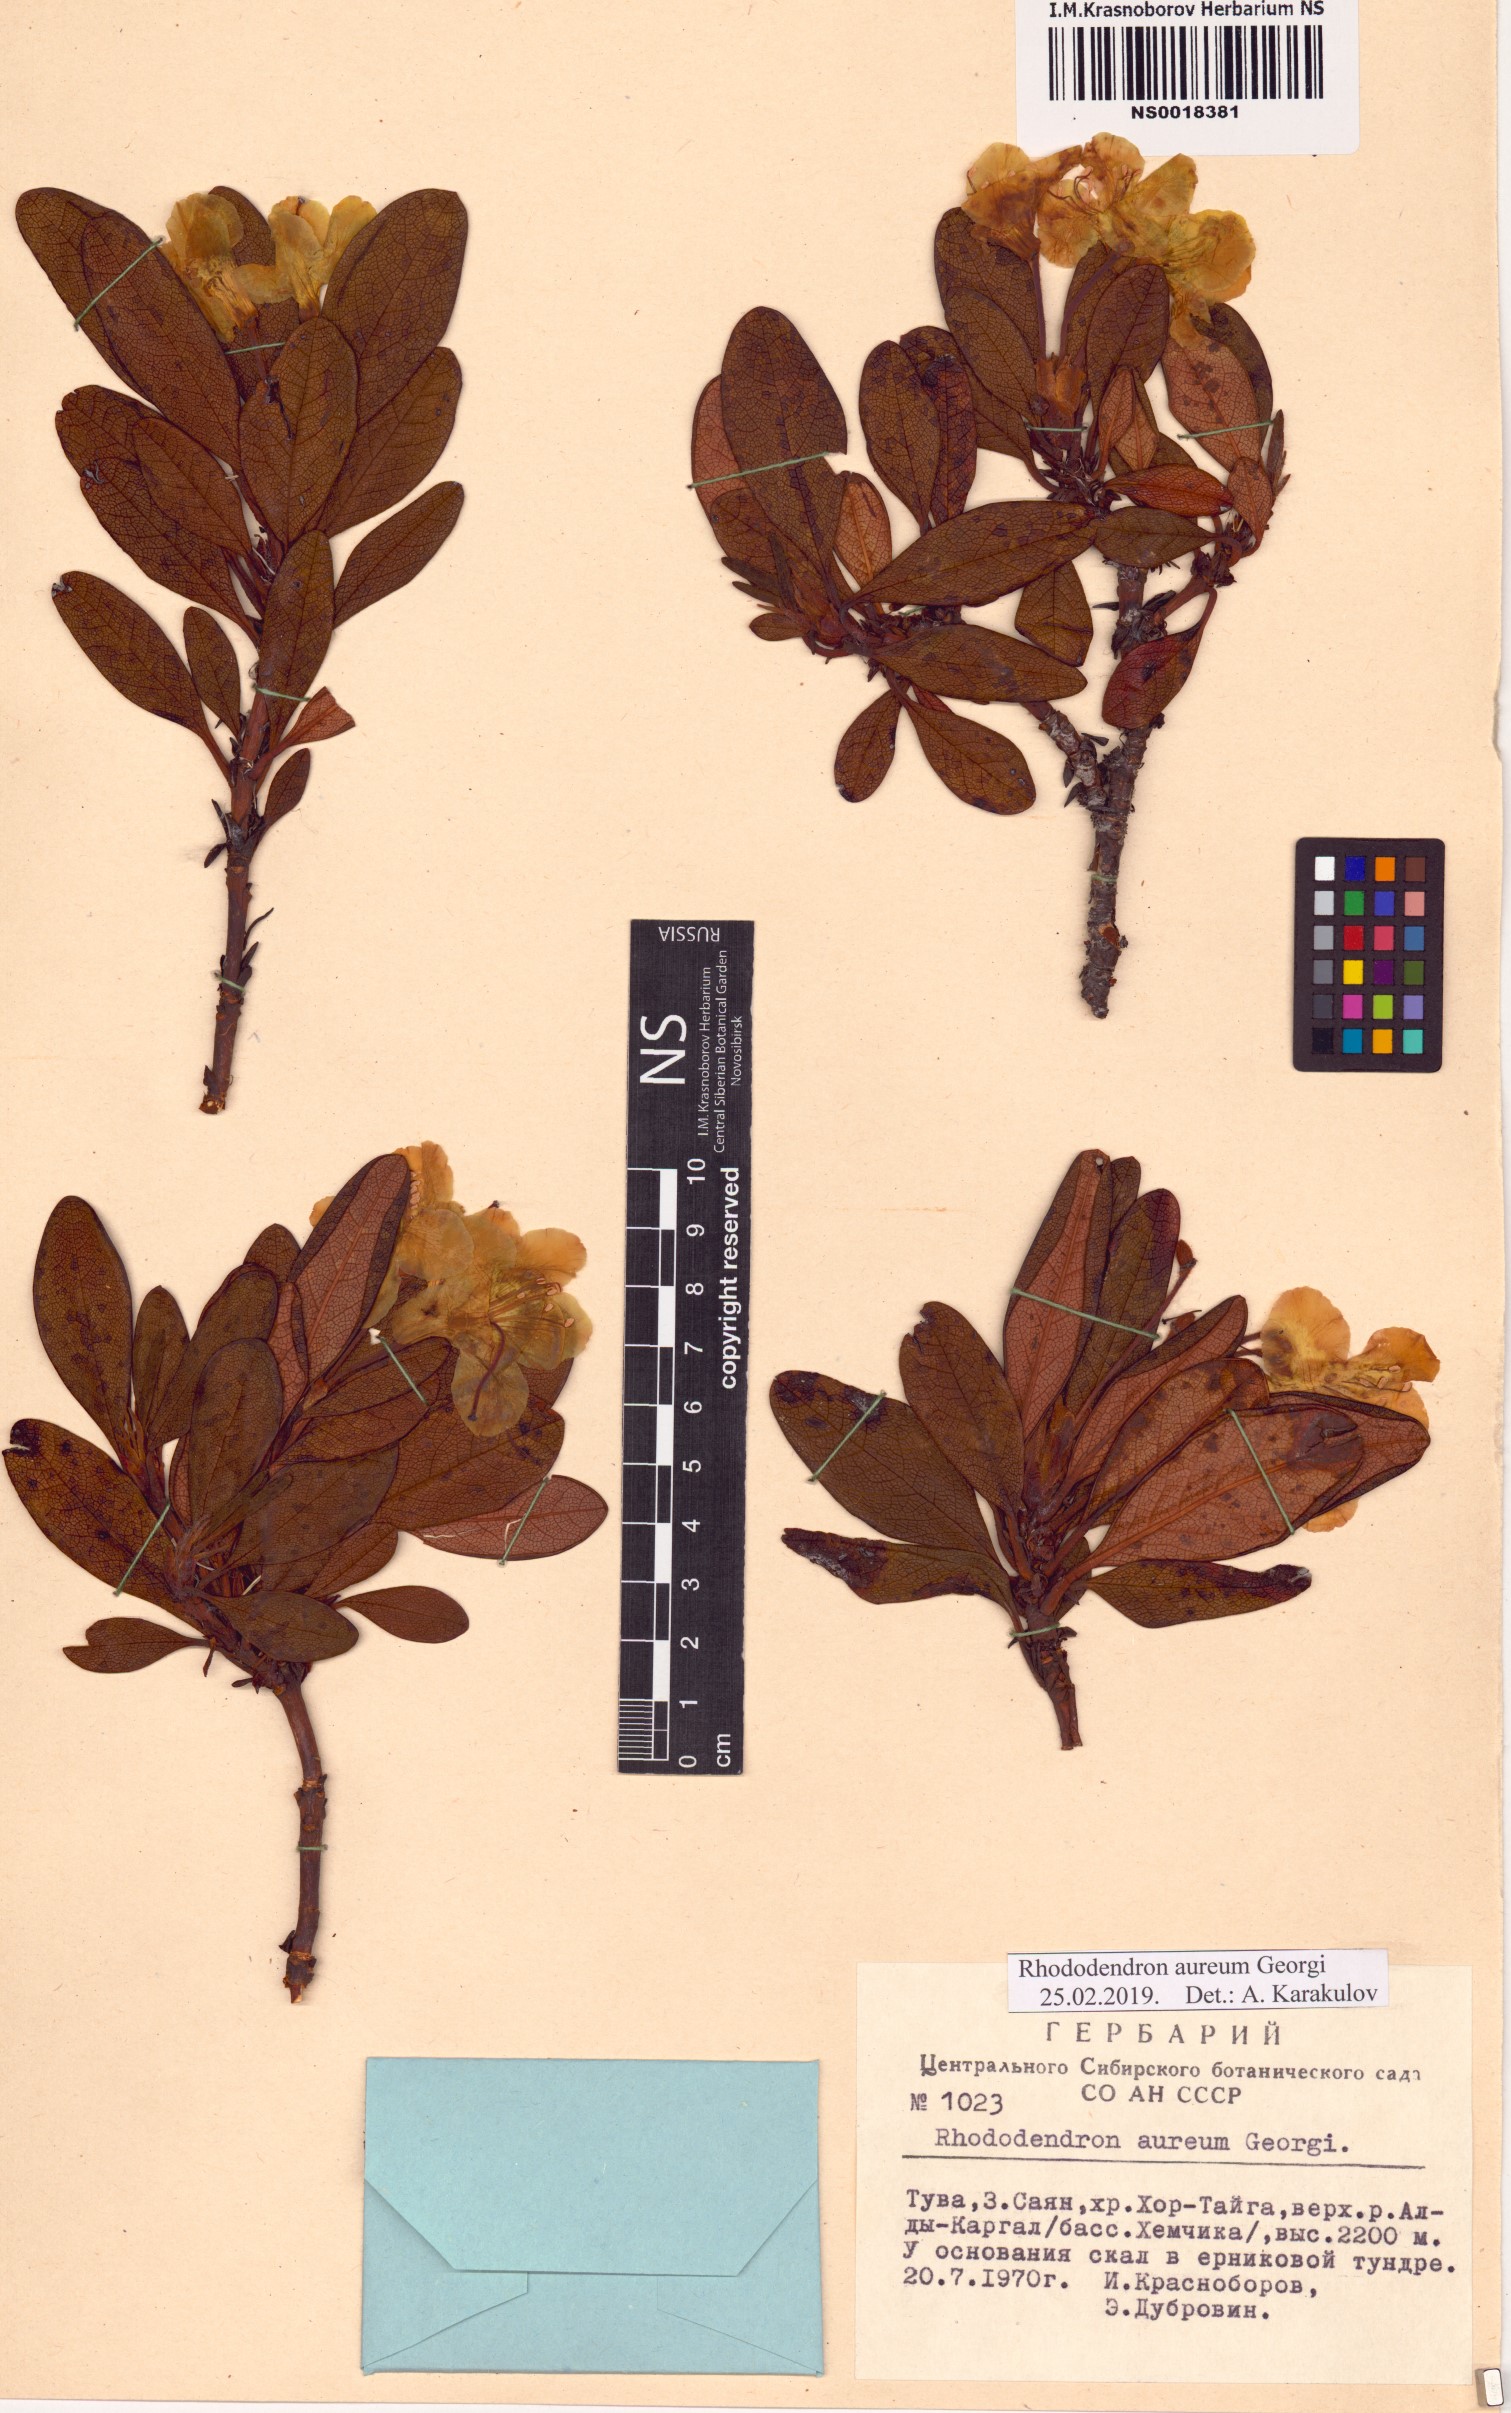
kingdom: Plantae
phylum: Tracheophyta
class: Magnoliopsida
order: Ericales
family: Ericaceae
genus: Rhododendron
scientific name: Rhododendron aureum
